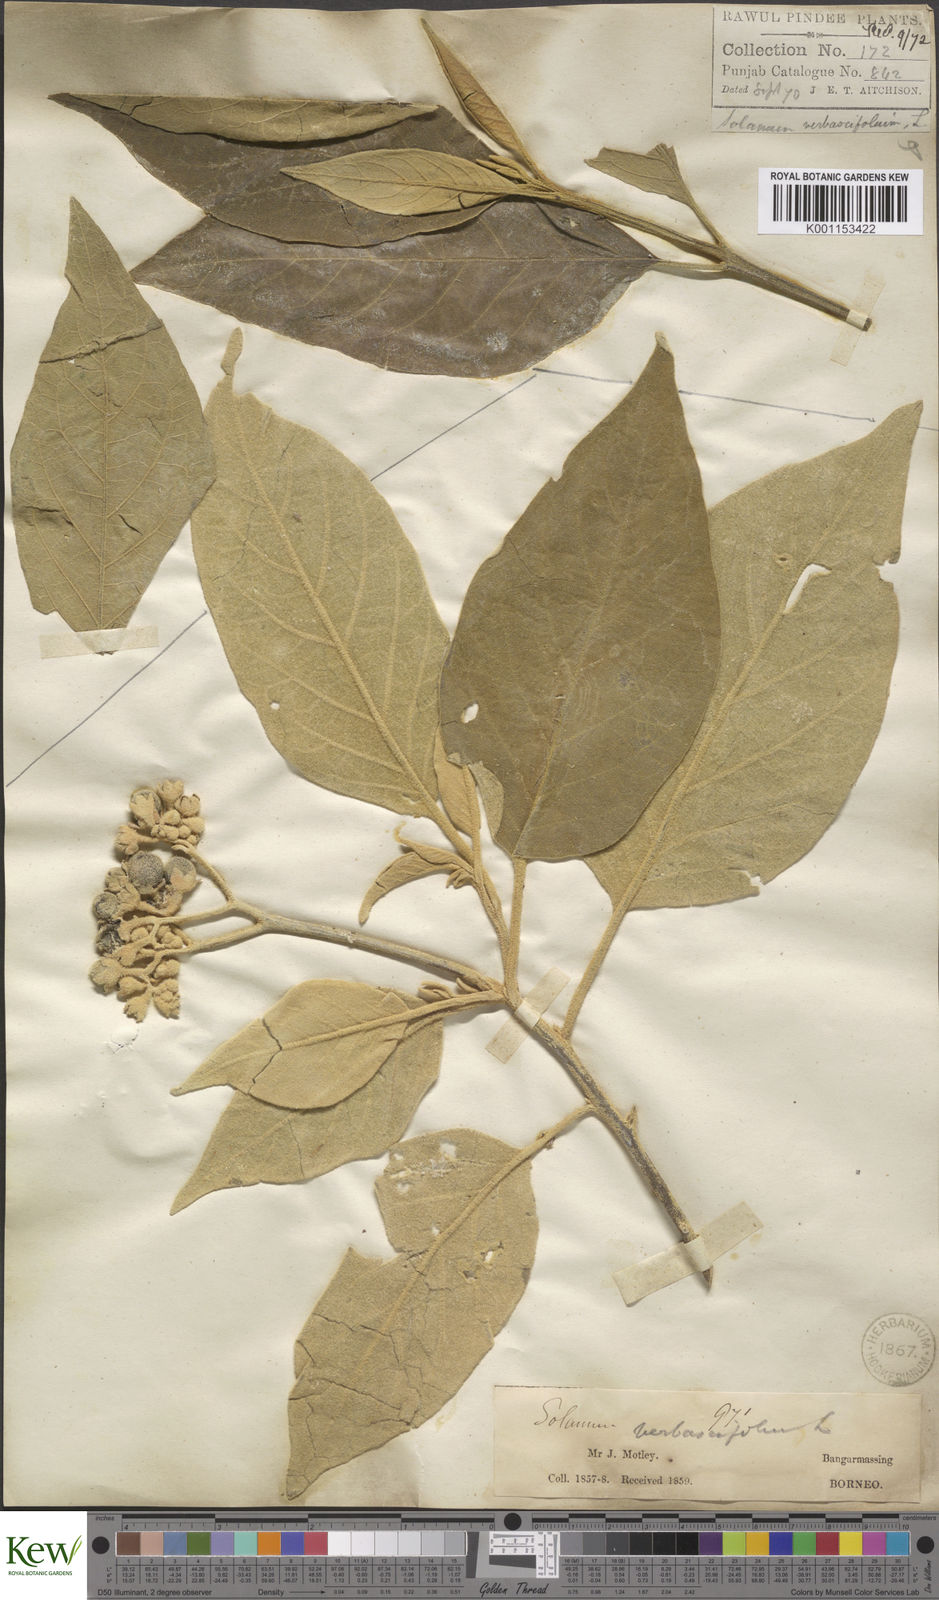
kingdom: Plantae
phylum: Tracheophyta
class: Magnoliopsida
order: Solanales
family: Solanaceae
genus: Solanum
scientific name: Solanum erianthum
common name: Tobacco-tree
